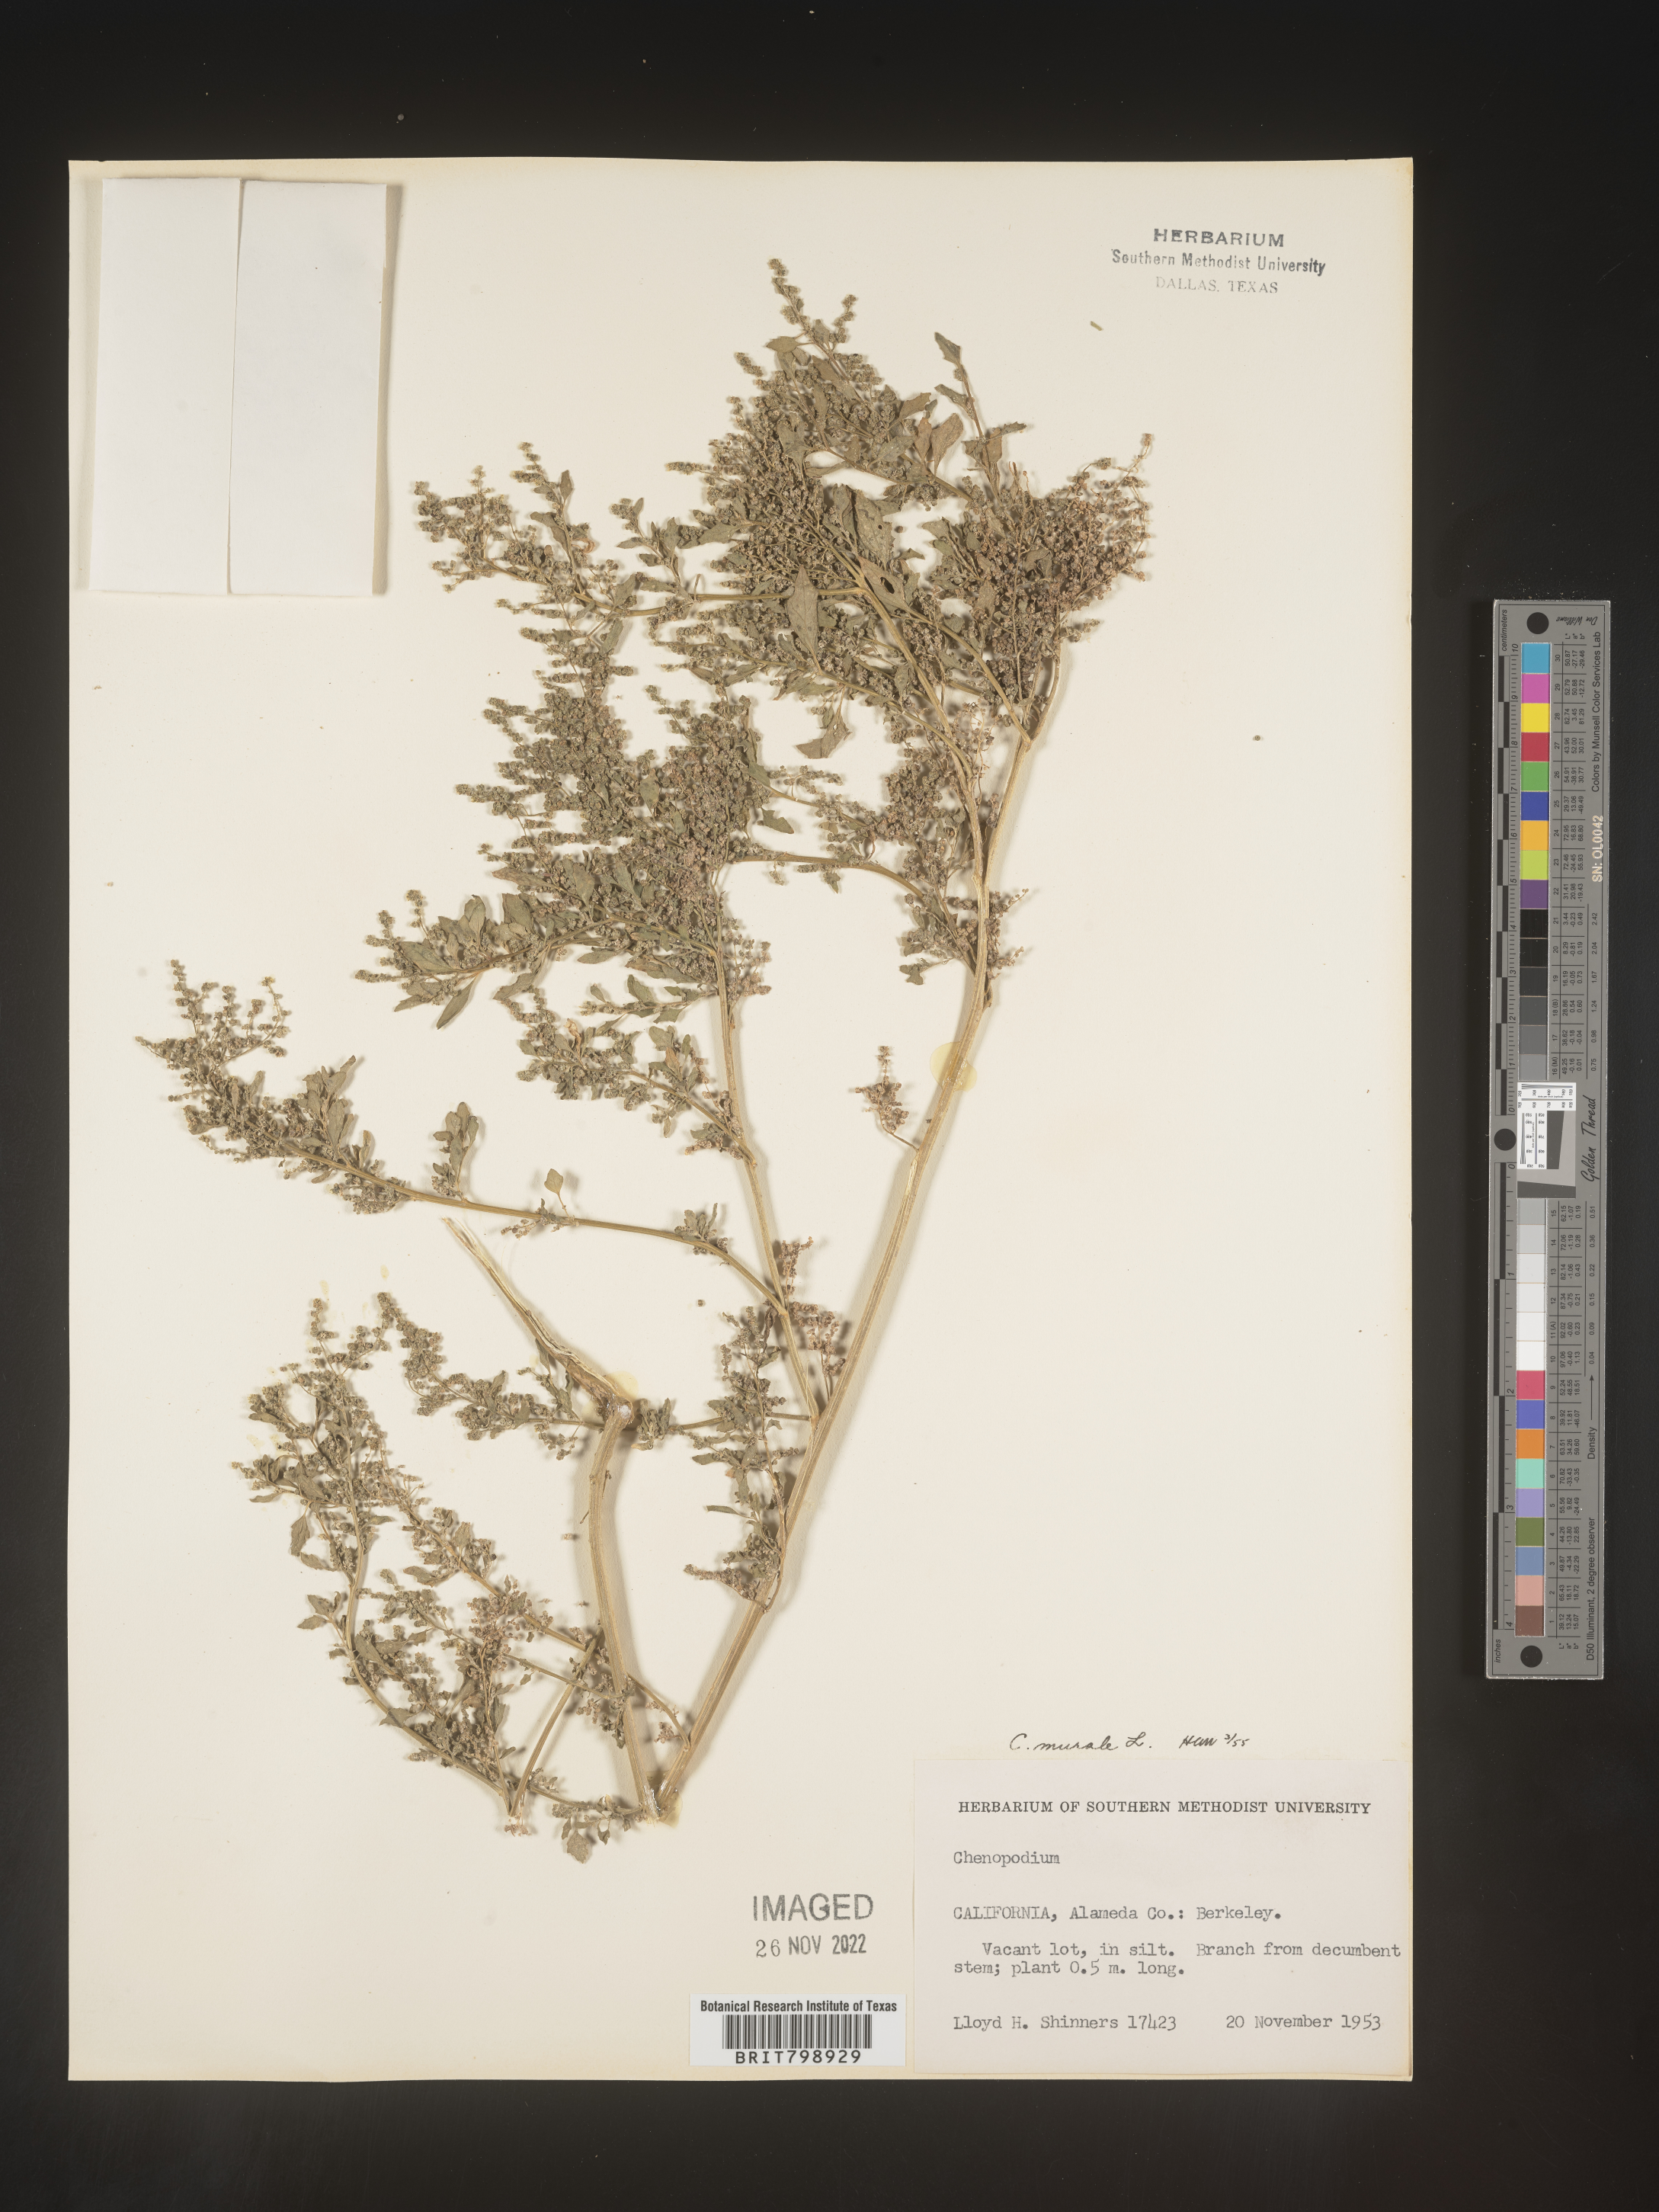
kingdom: Plantae
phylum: Tracheophyta
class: Magnoliopsida
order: Caryophyllales
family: Amaranthaceae
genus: Chenopodiastrum
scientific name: Chenopodiastrum murale
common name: Sowbane
